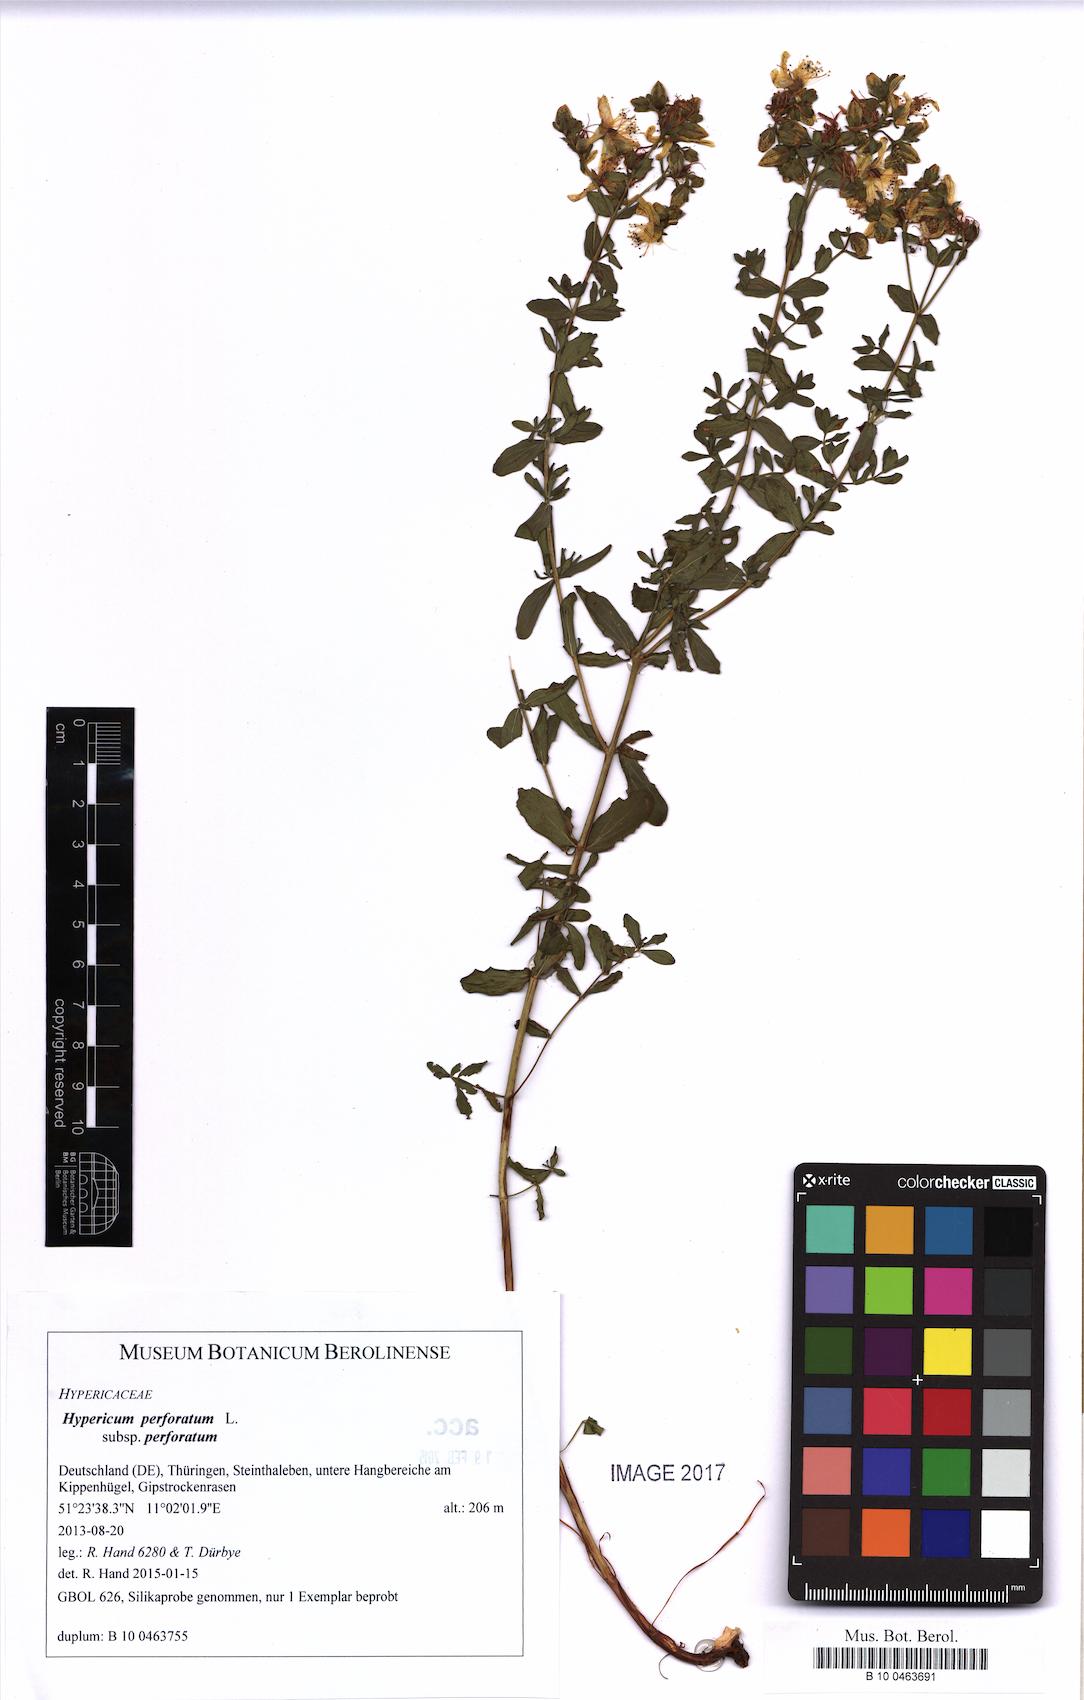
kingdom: Plantae
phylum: Tracheophyta
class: Magnoliopsida
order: Malpighiales
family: Hypericaceae
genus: Hypericum
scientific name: Hypericum perforatum
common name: Common st. johnswort
